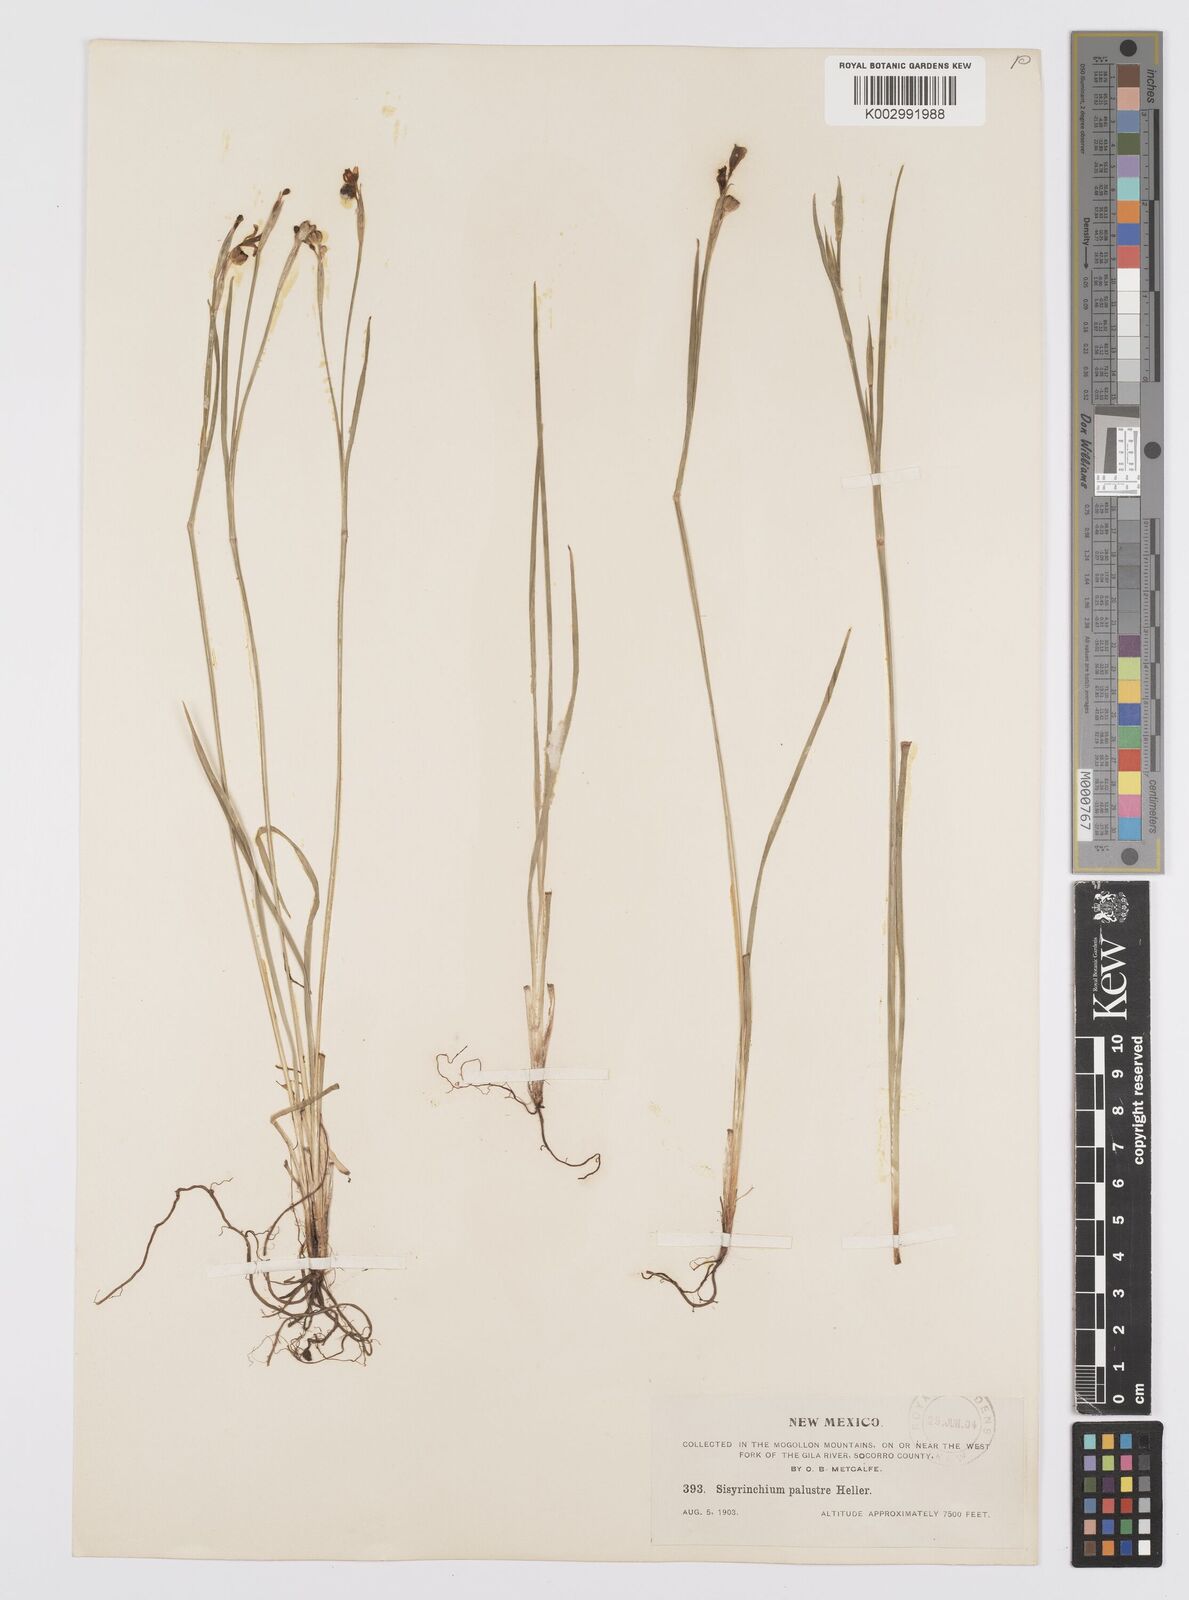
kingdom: Plantae
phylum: Tracheophyta
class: Liliopsida
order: Asparagales
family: Iridaceae
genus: Sisyrinchium
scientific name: Sisyrinchium palustre
